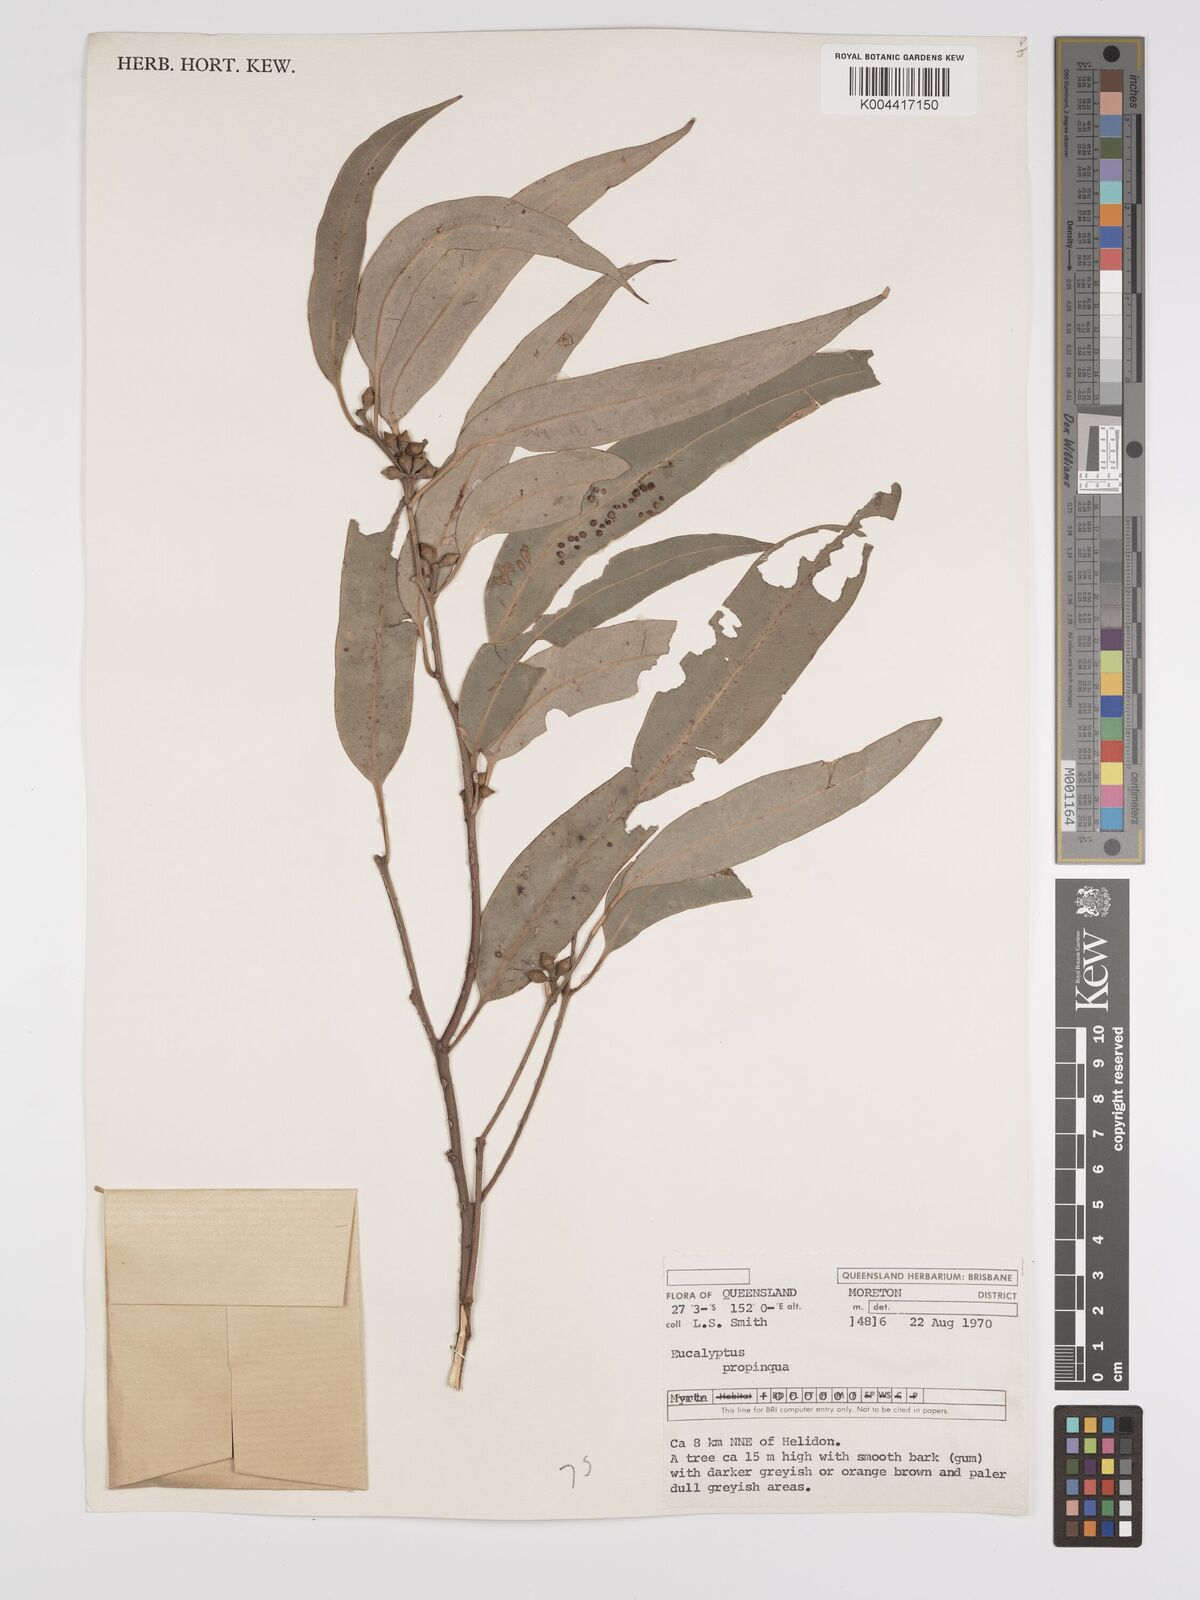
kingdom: Plantae
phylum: Tracheophyta
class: Magnoliopsida
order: Myrtales
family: Myrtaceae
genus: Eucalyptus
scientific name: Eucalyptus propinqua
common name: Grey-gum
